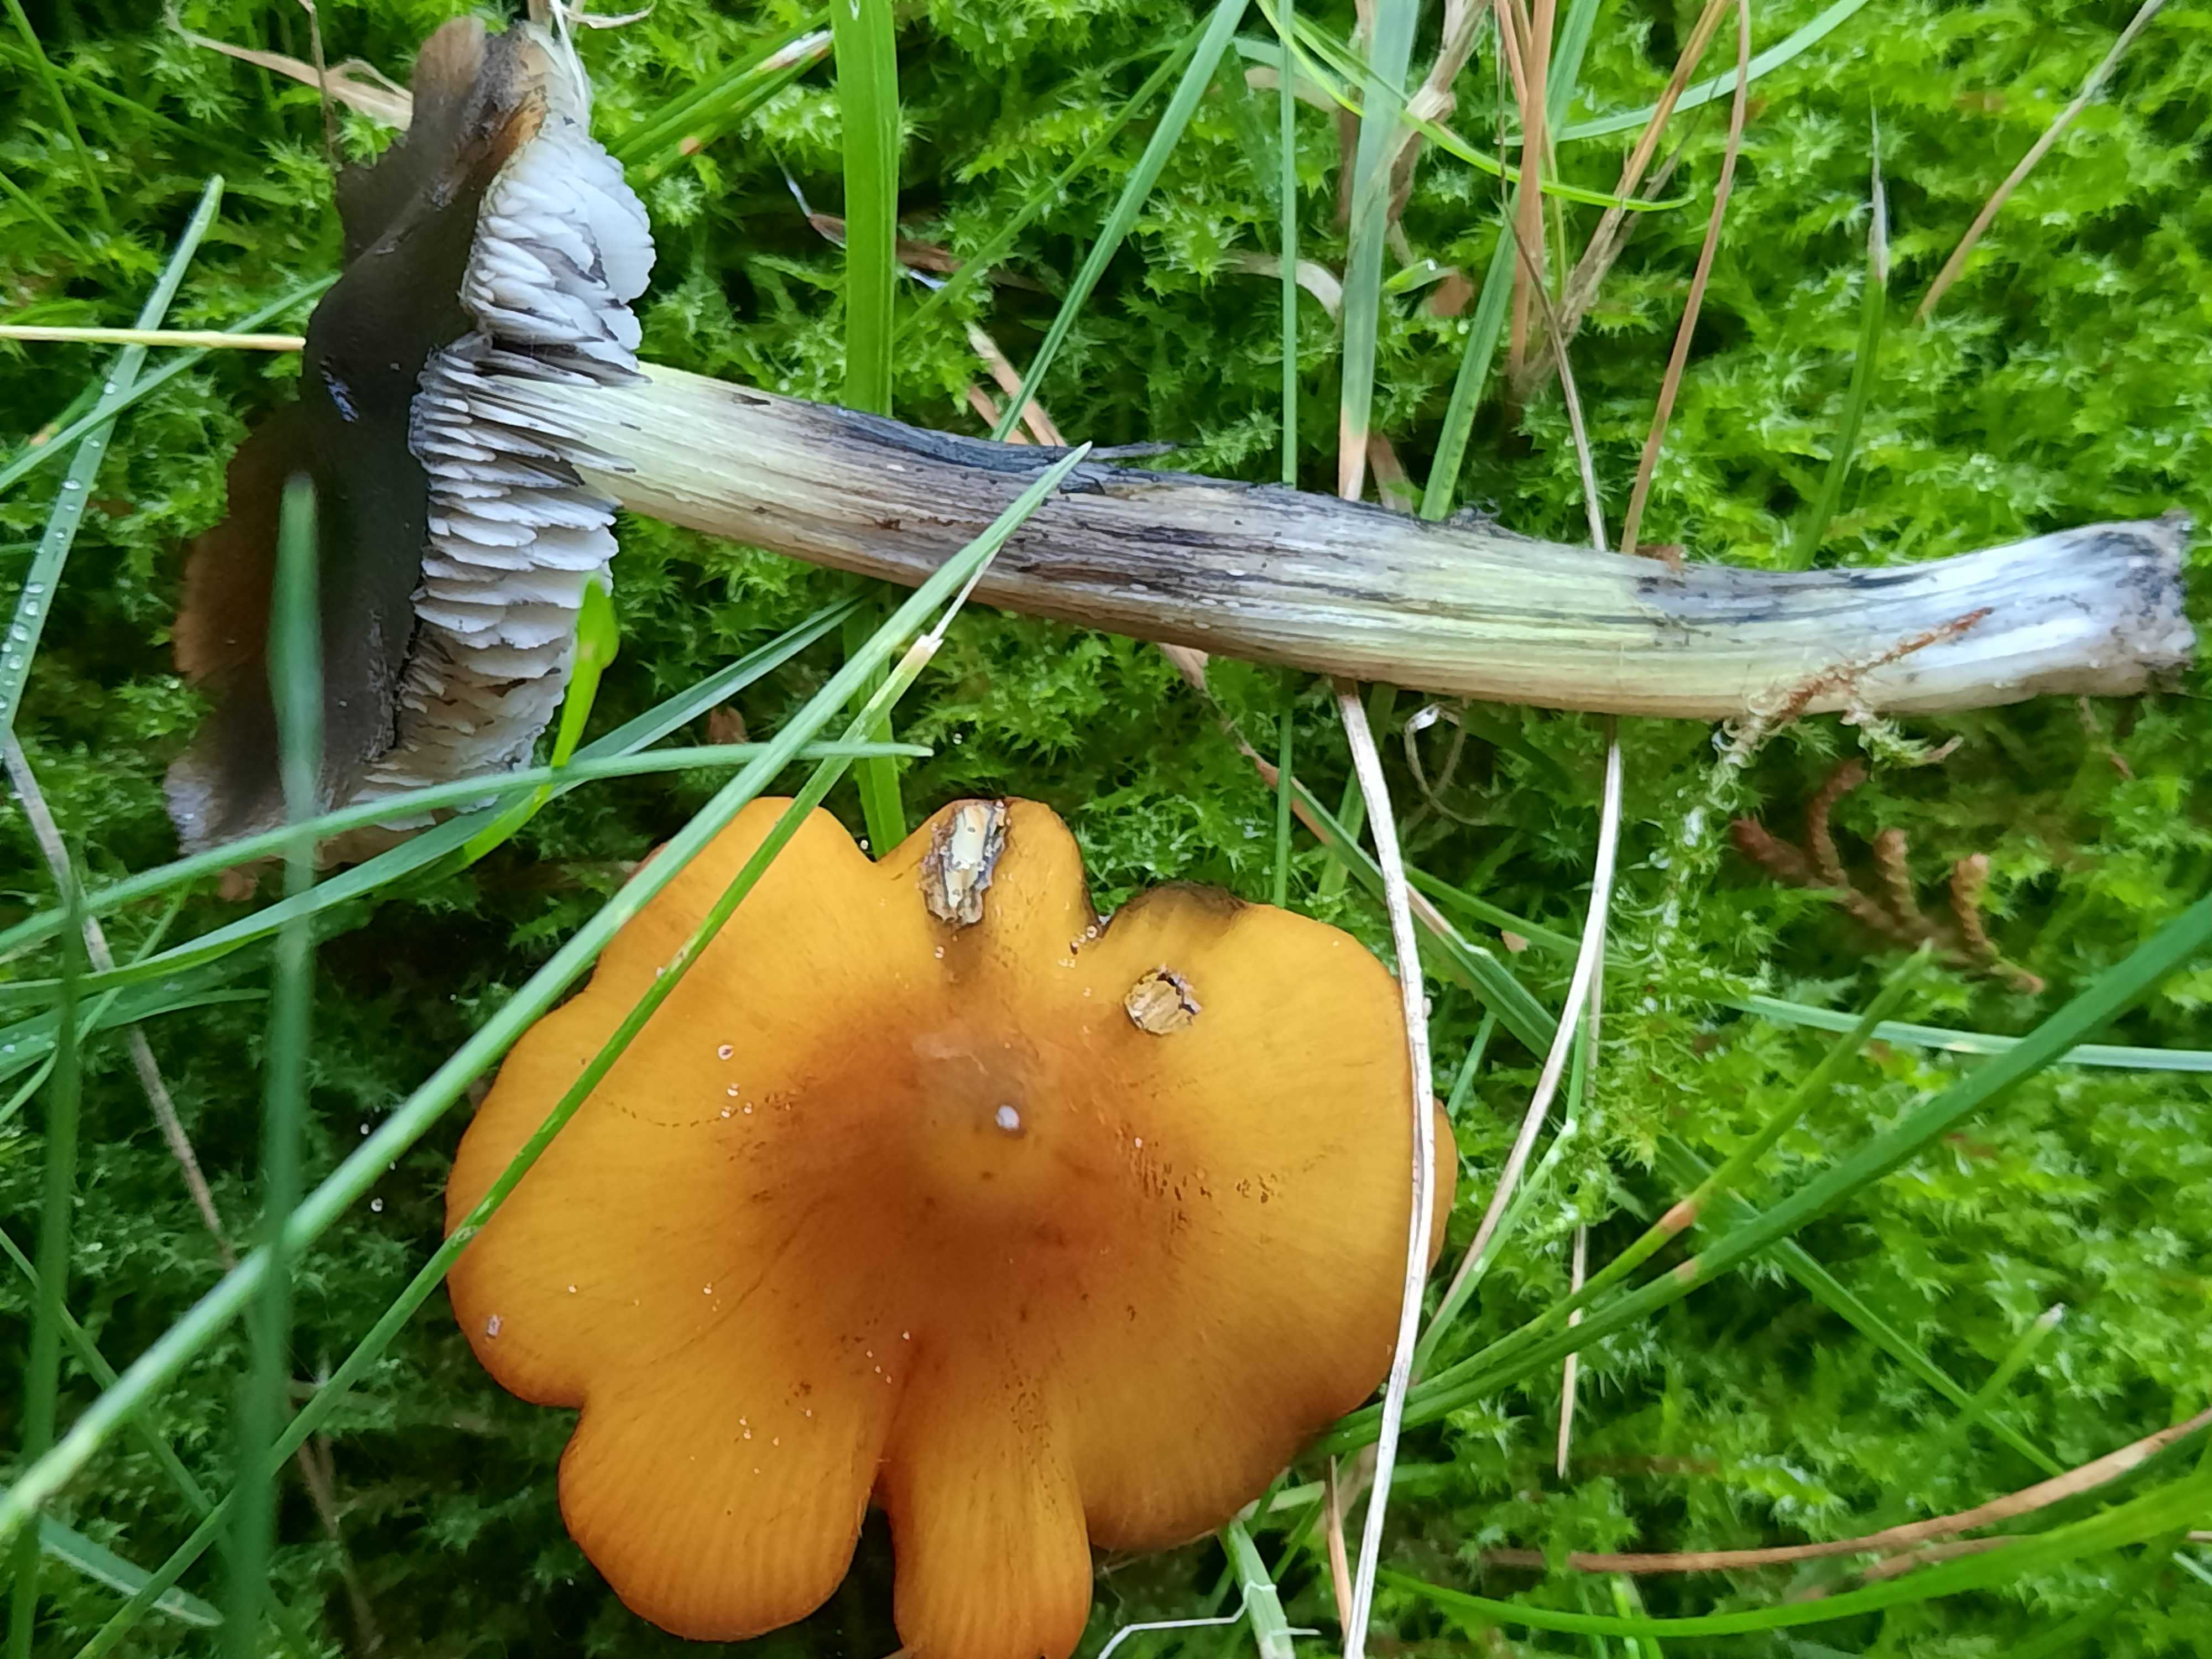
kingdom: Fungi
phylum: Basidiomycota
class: Agaricomycetes
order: Agaricales
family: Hygrophoraceae
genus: Hygrocybe
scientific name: Hygrocybe conica
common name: kegle-vokshat
